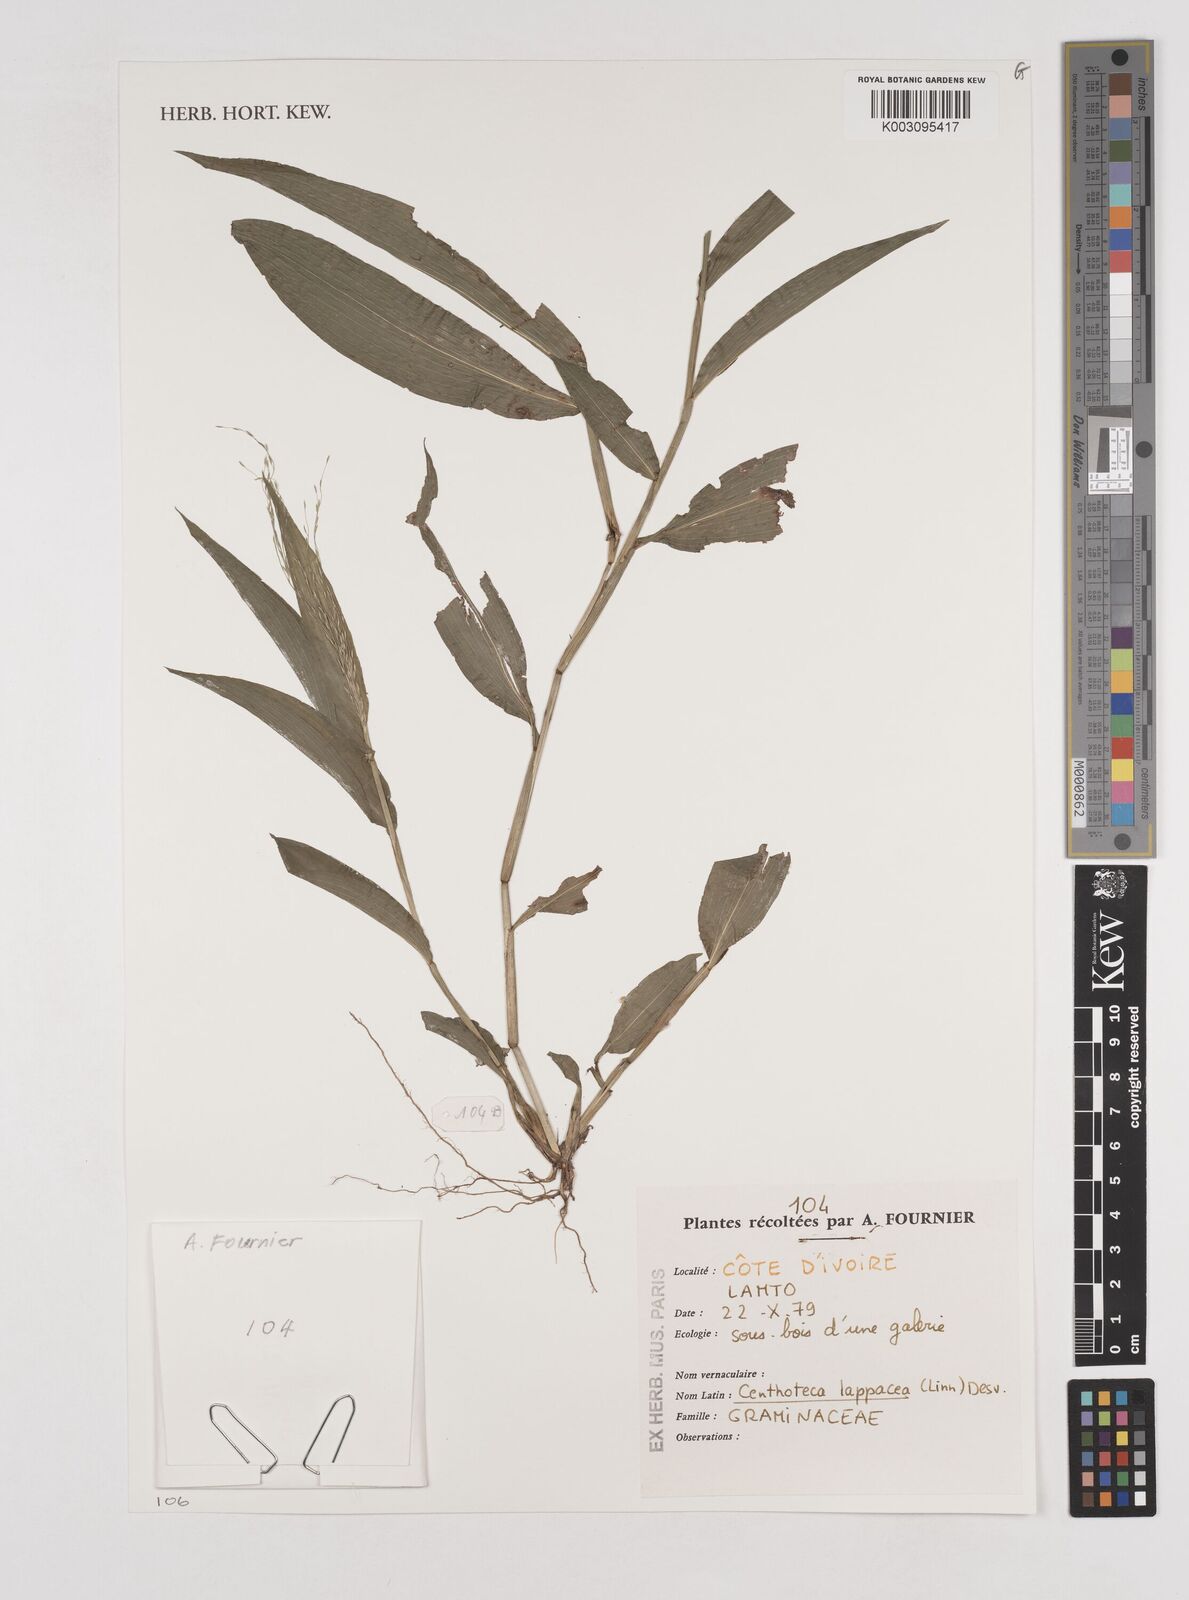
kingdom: Plantae
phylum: Tracheophyta
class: Liliopsida
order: Poales
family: Poaceae
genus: Centotheca
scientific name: Centotheca lappacea
